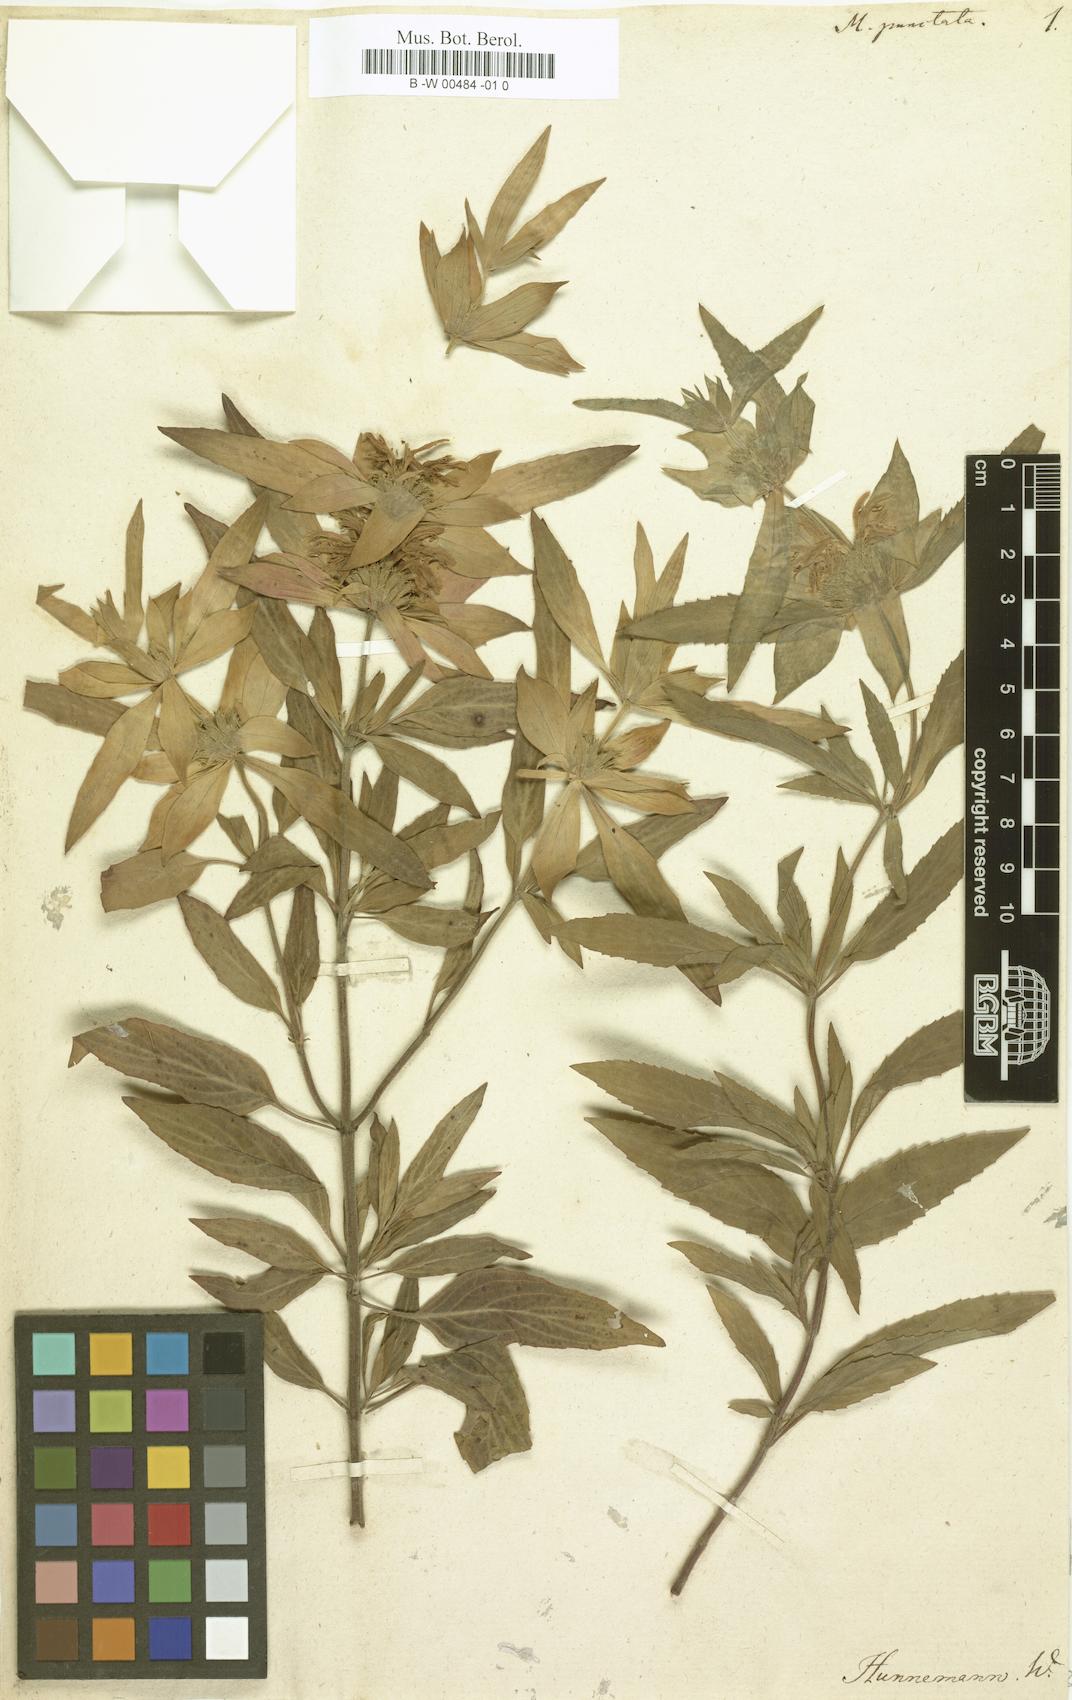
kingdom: Plantae
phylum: Tracheophyta
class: Magnoliopsida
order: Lamiales
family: Lamiaceae
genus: Monarda
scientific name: Monarda punctata
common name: Dotted monarda
